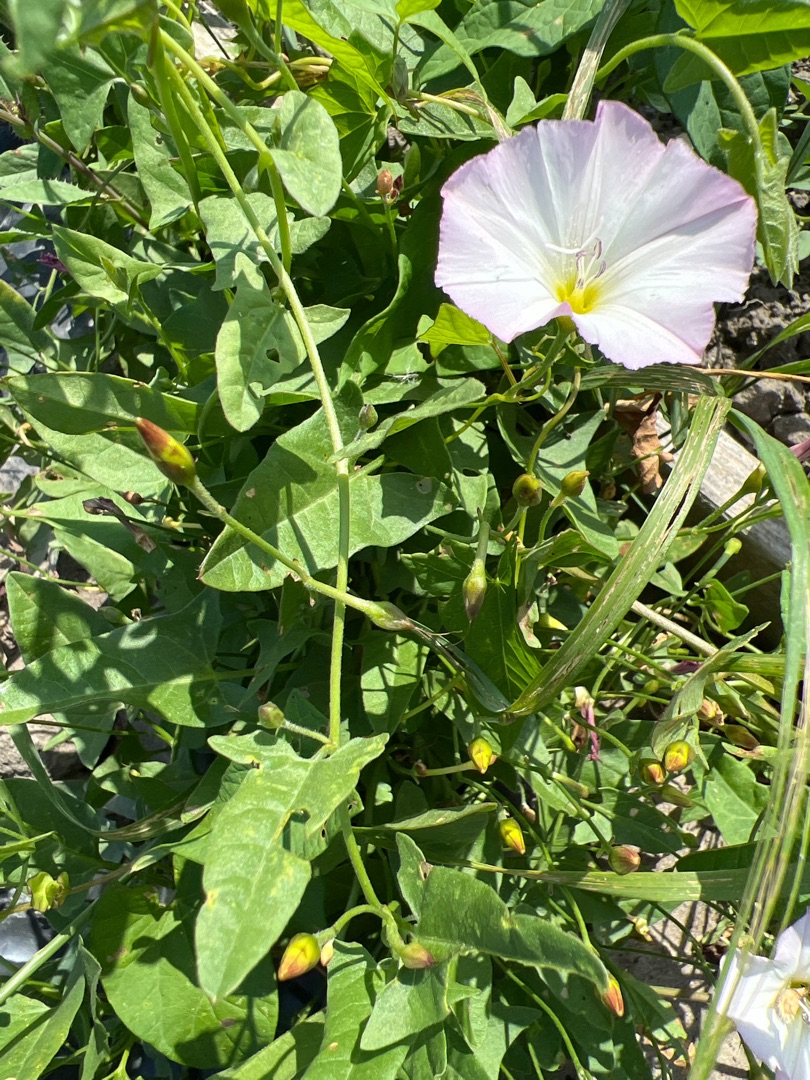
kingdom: Plantae
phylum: Tracheophyta
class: Magnoliopsida
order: Solanales
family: Convolvulaceae
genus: Convolvulus
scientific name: Convolvulus arvensis
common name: Ager-snerle
